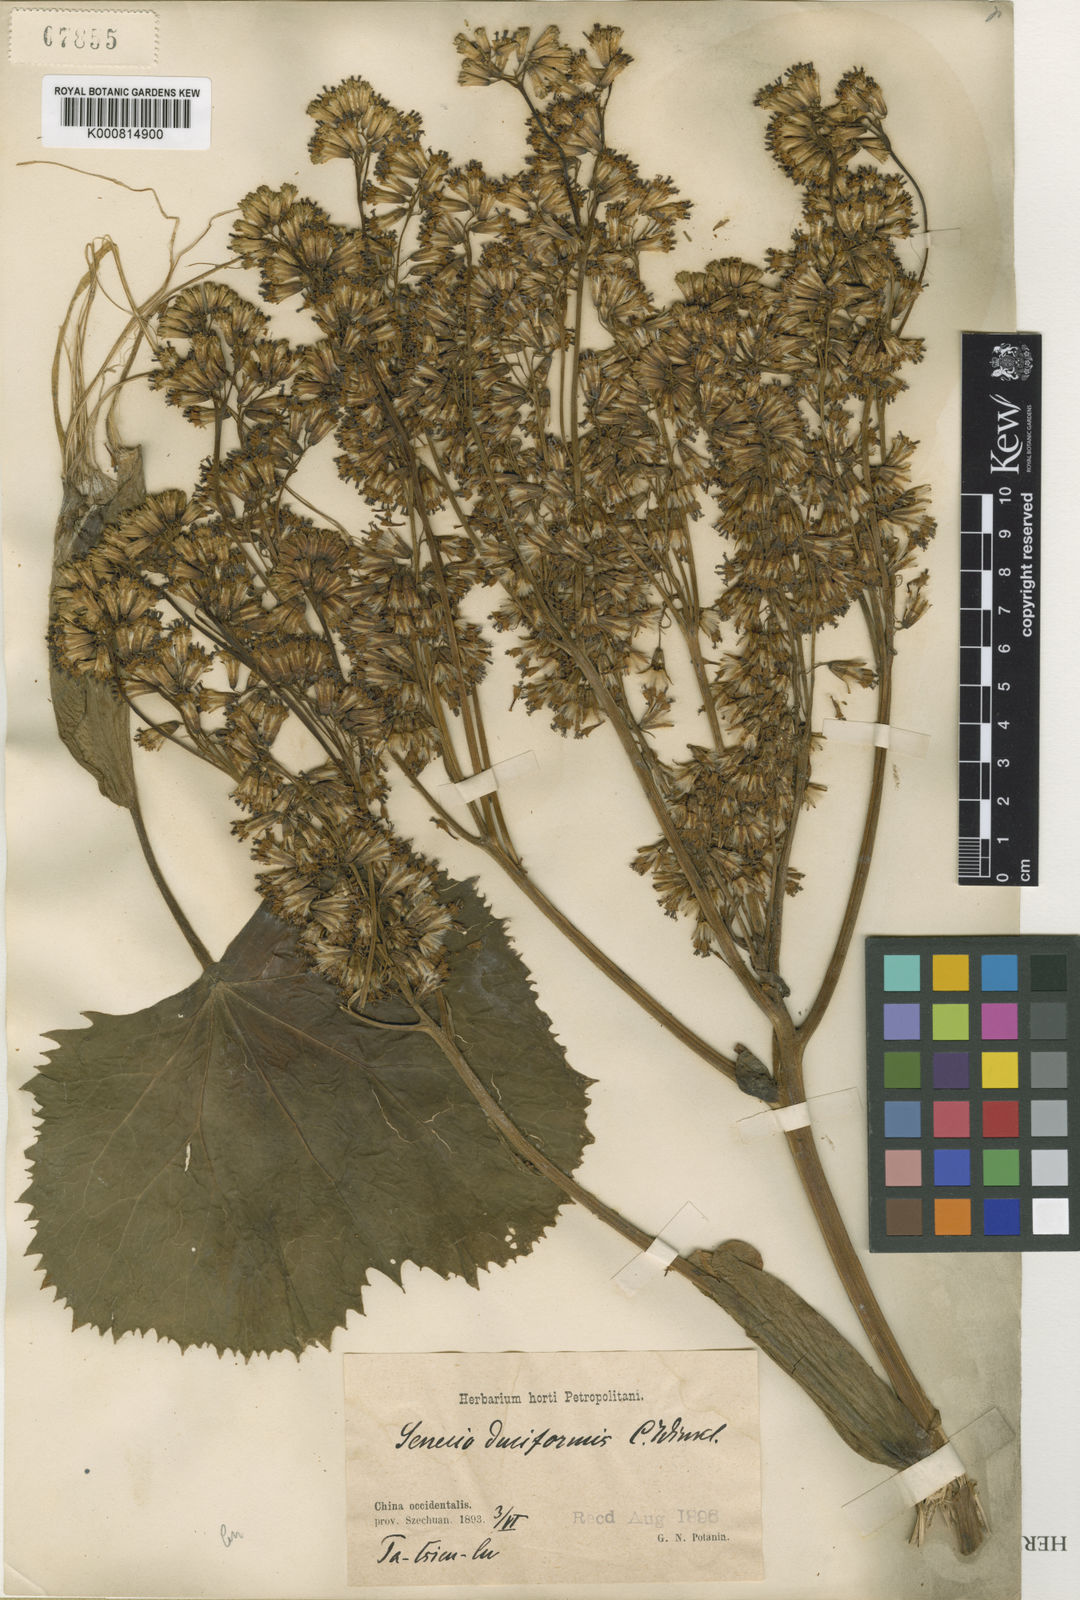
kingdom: Plantae
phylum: Tracheophyta
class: Magnoliopsida
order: Asterales
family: Asteraceae
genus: Ligularia
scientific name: Ligularia duciformis
